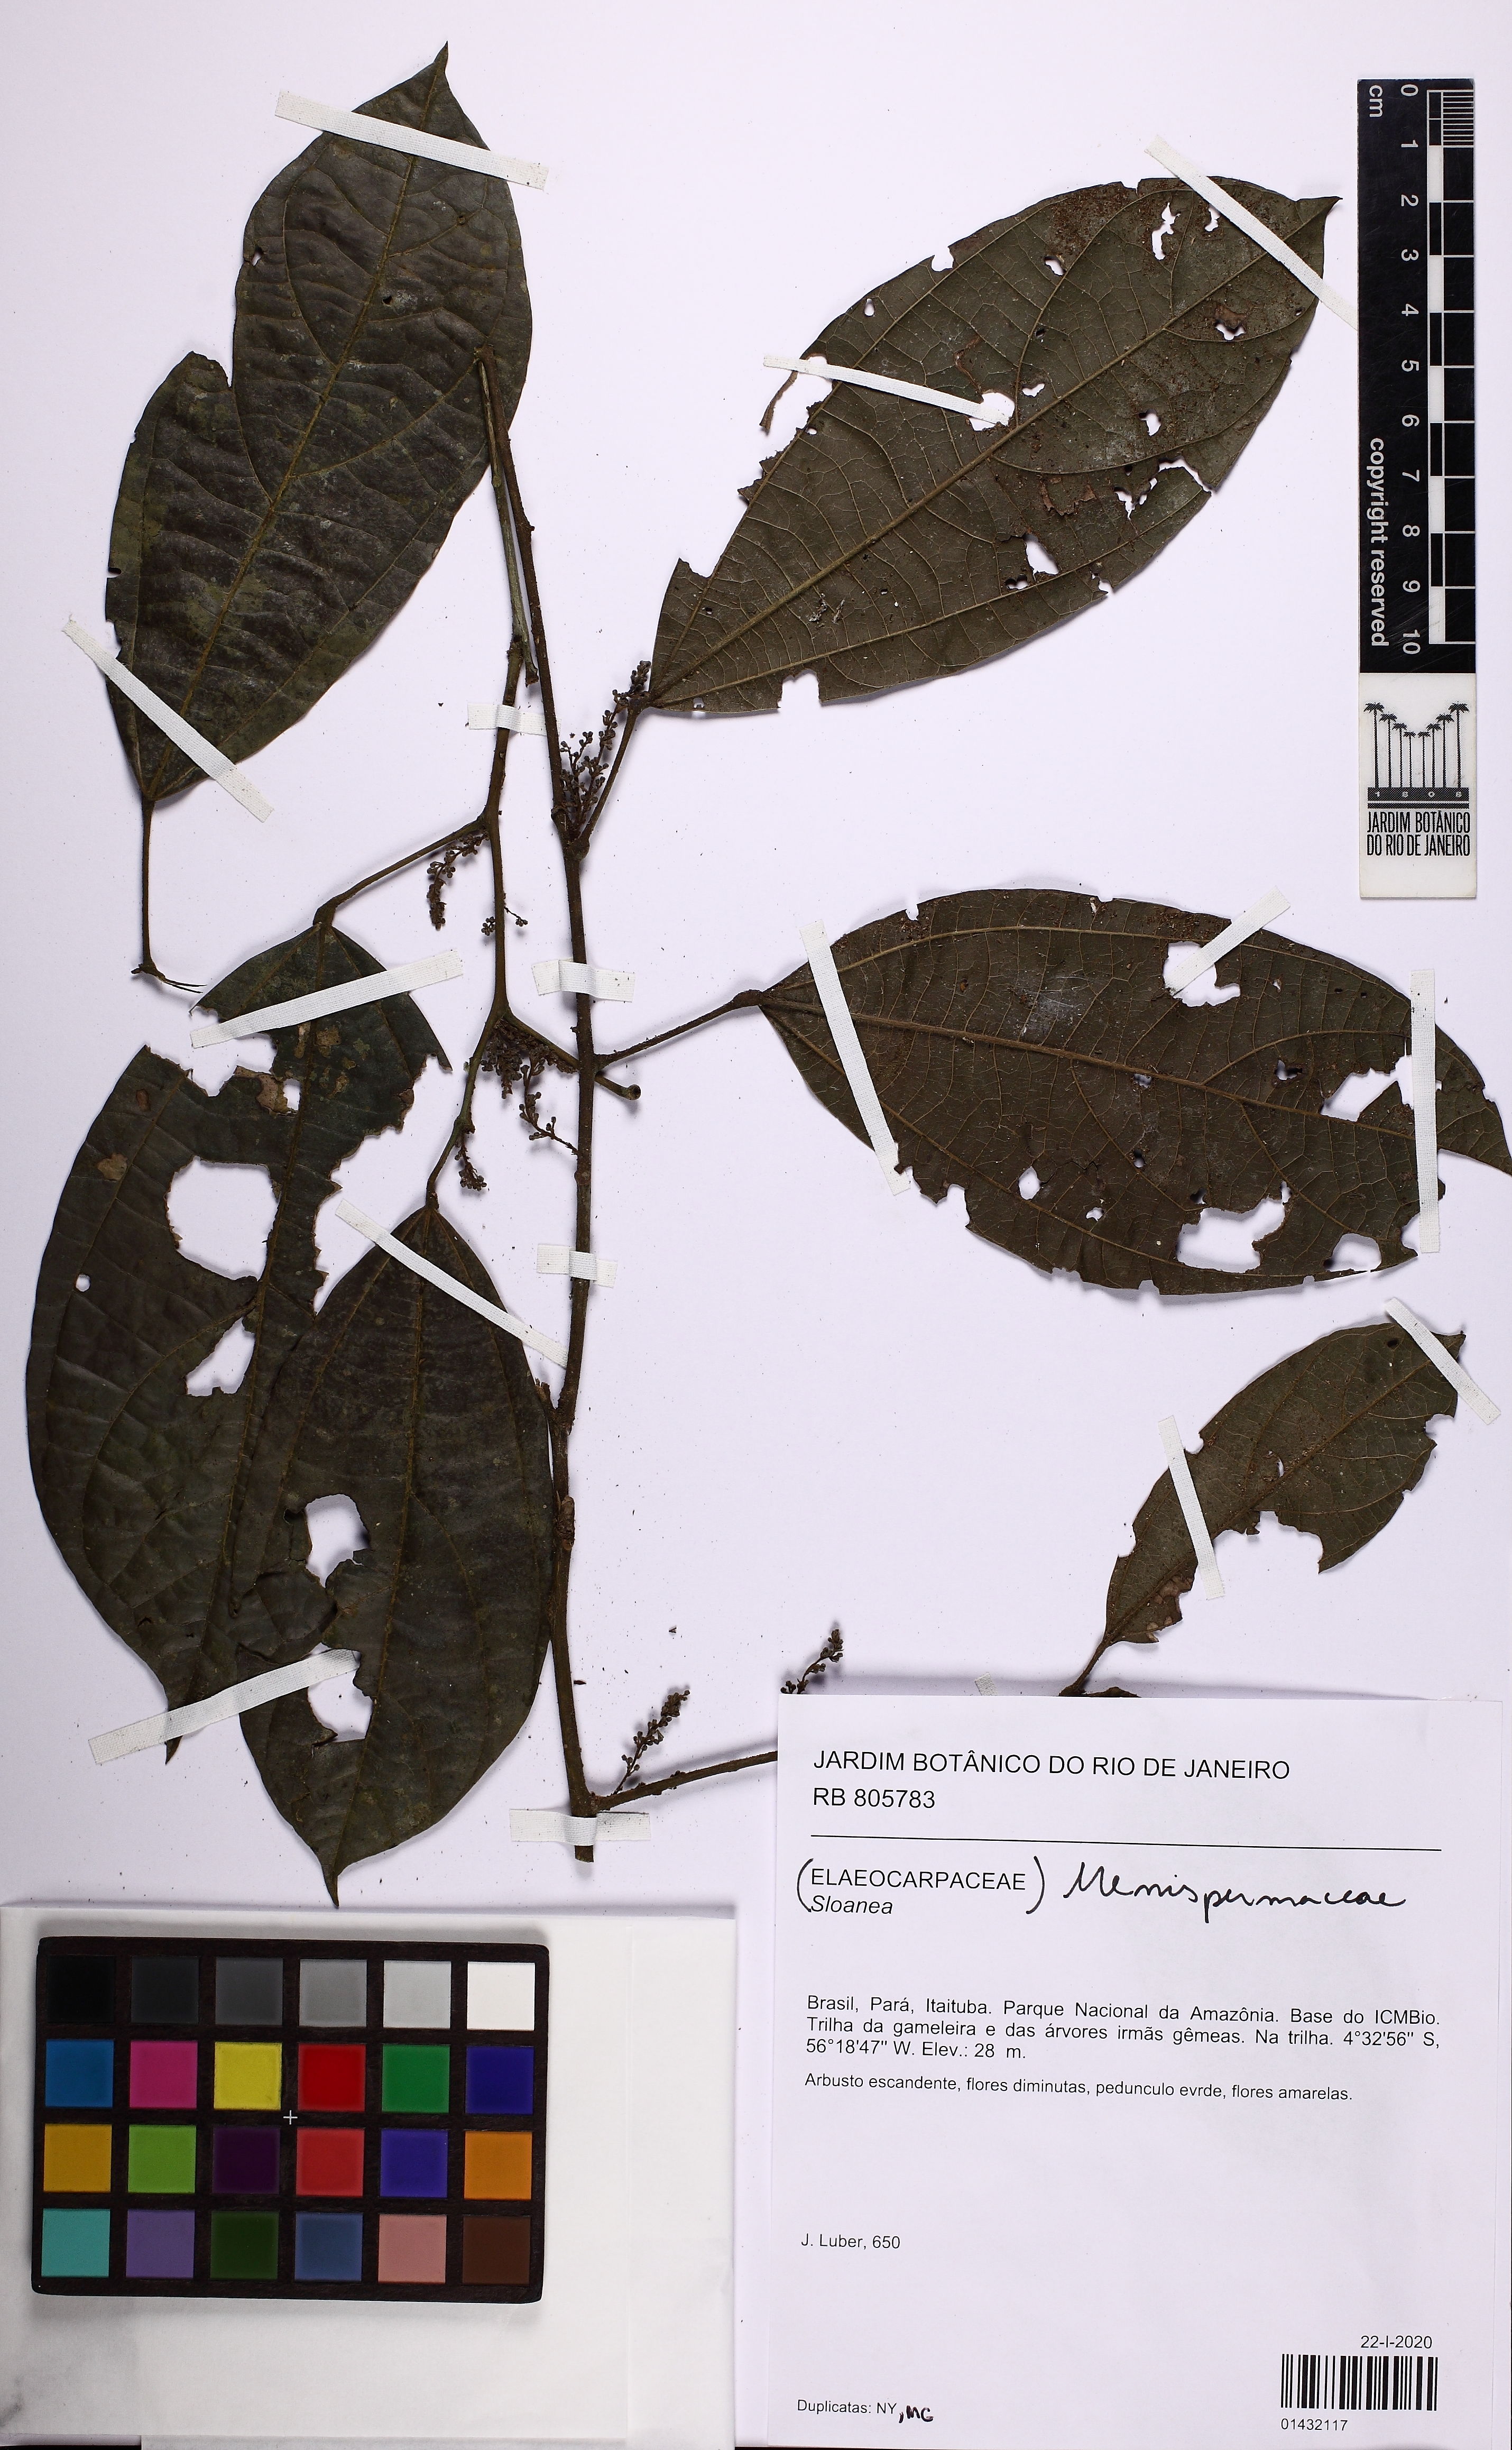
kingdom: Plantae
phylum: Tracheophyta
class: Magnoliopsida
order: Ranunculales
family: Menispermaceae
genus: Abuta
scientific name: Abuta grandifolia
